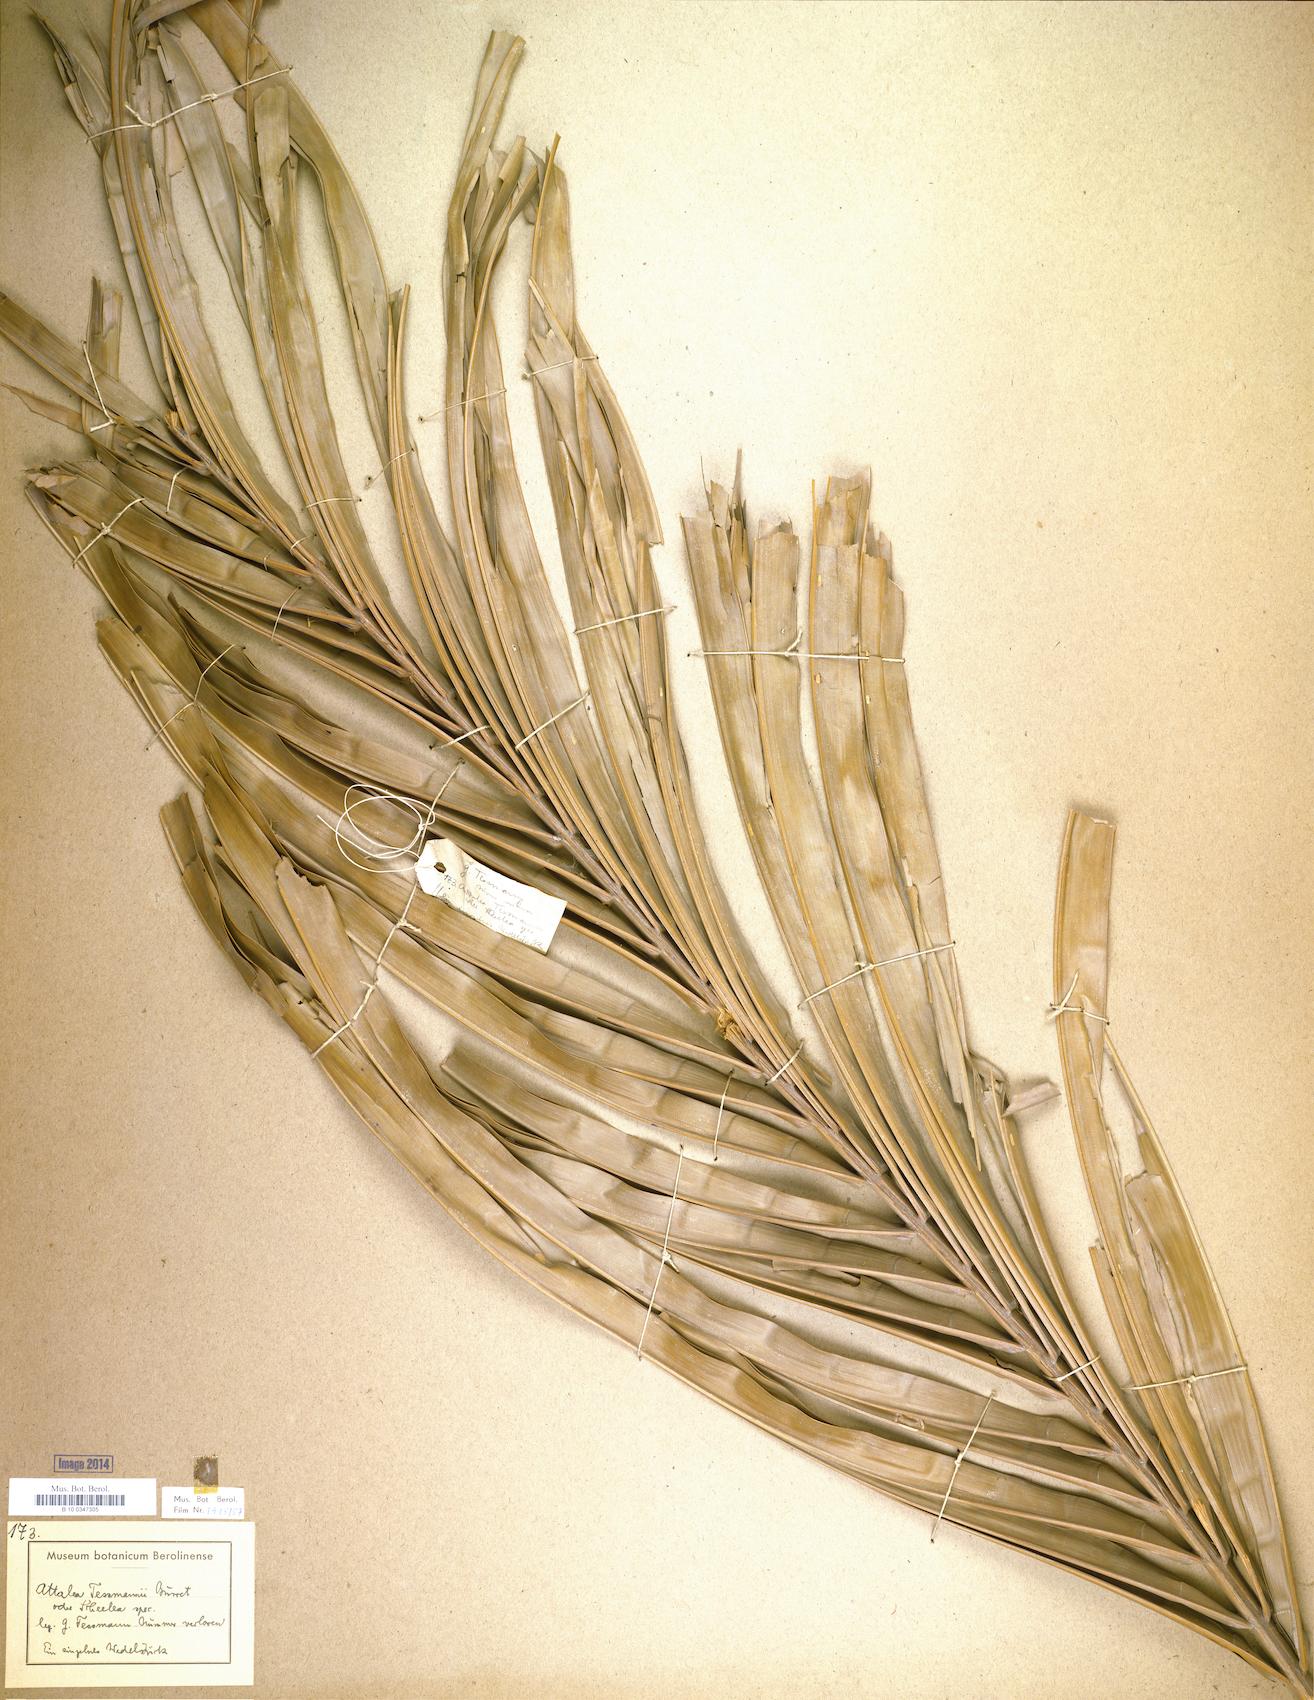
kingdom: Plantae
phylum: Tracheophyta
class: Liliopsida
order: Arecales
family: Arecaceae
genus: Attalea
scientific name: Attalea tessmannii
